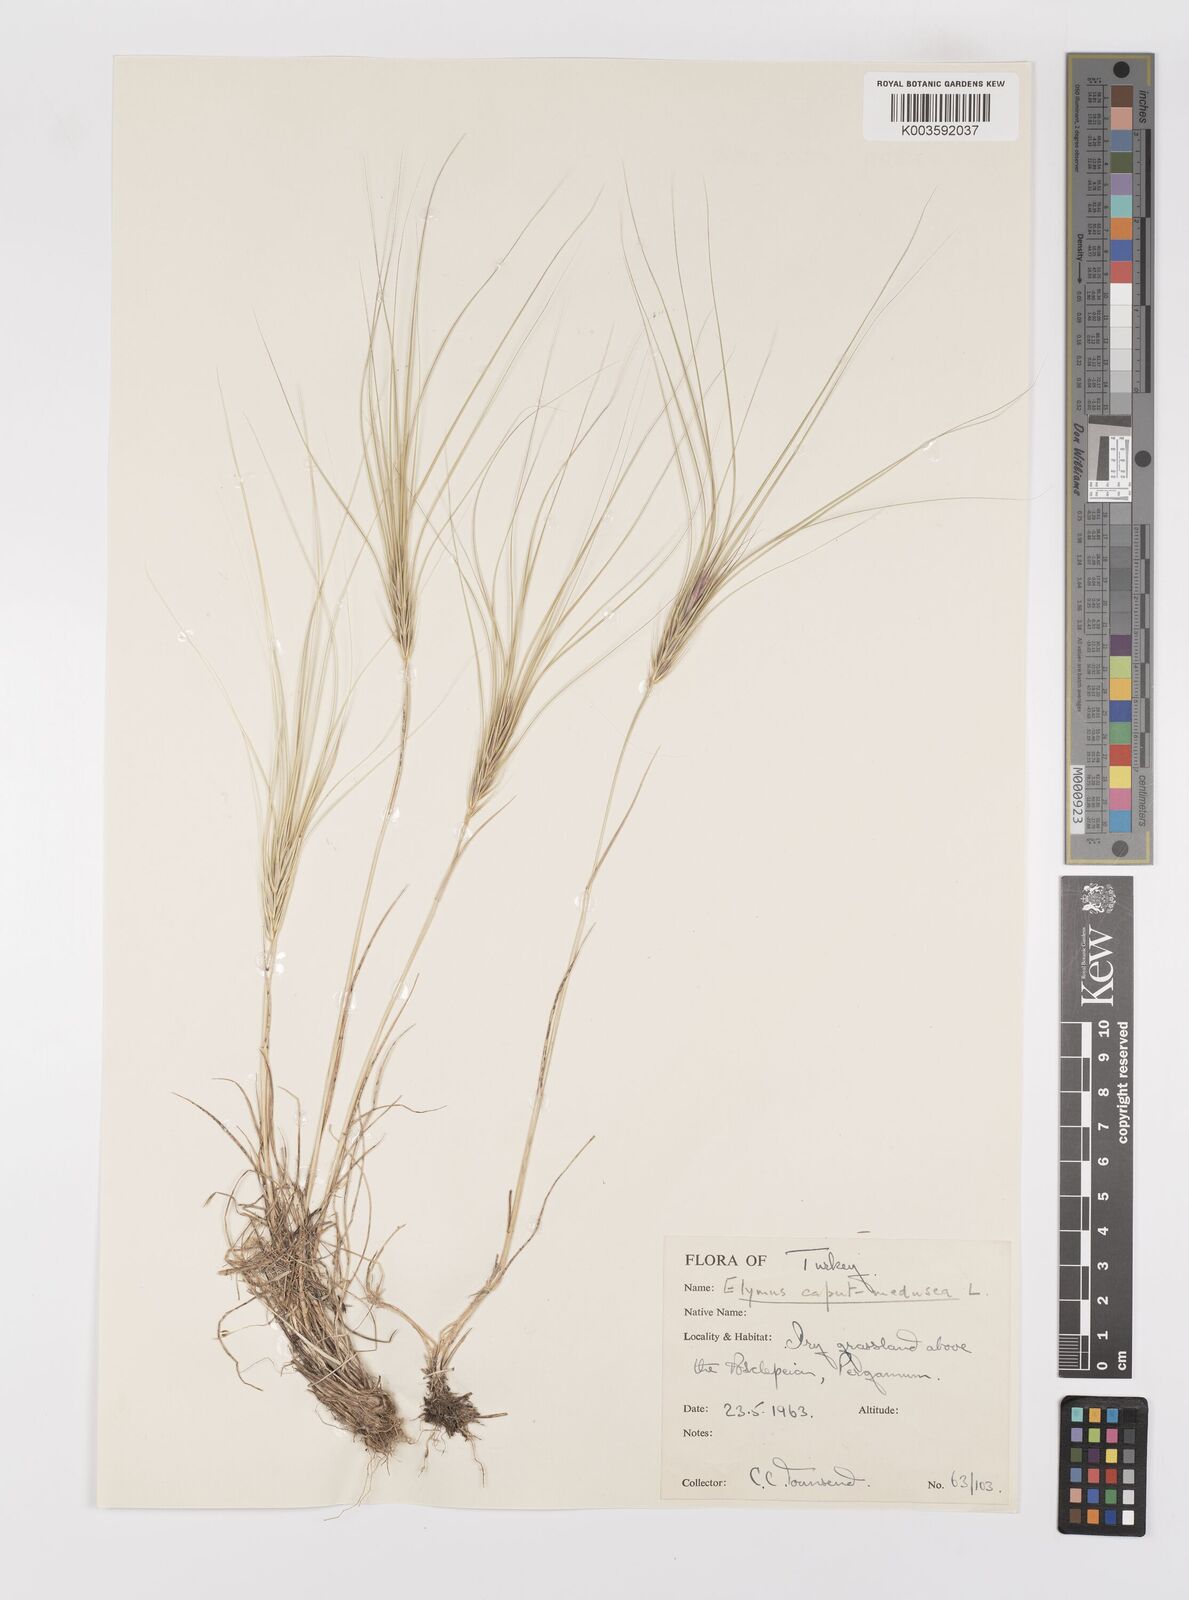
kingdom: Plantae
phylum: Tracheophyta
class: Liliopsida
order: Poales
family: Poaceae
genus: Taeniatherum
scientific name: Taeniatherum caput-medusae
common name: Medusahead
